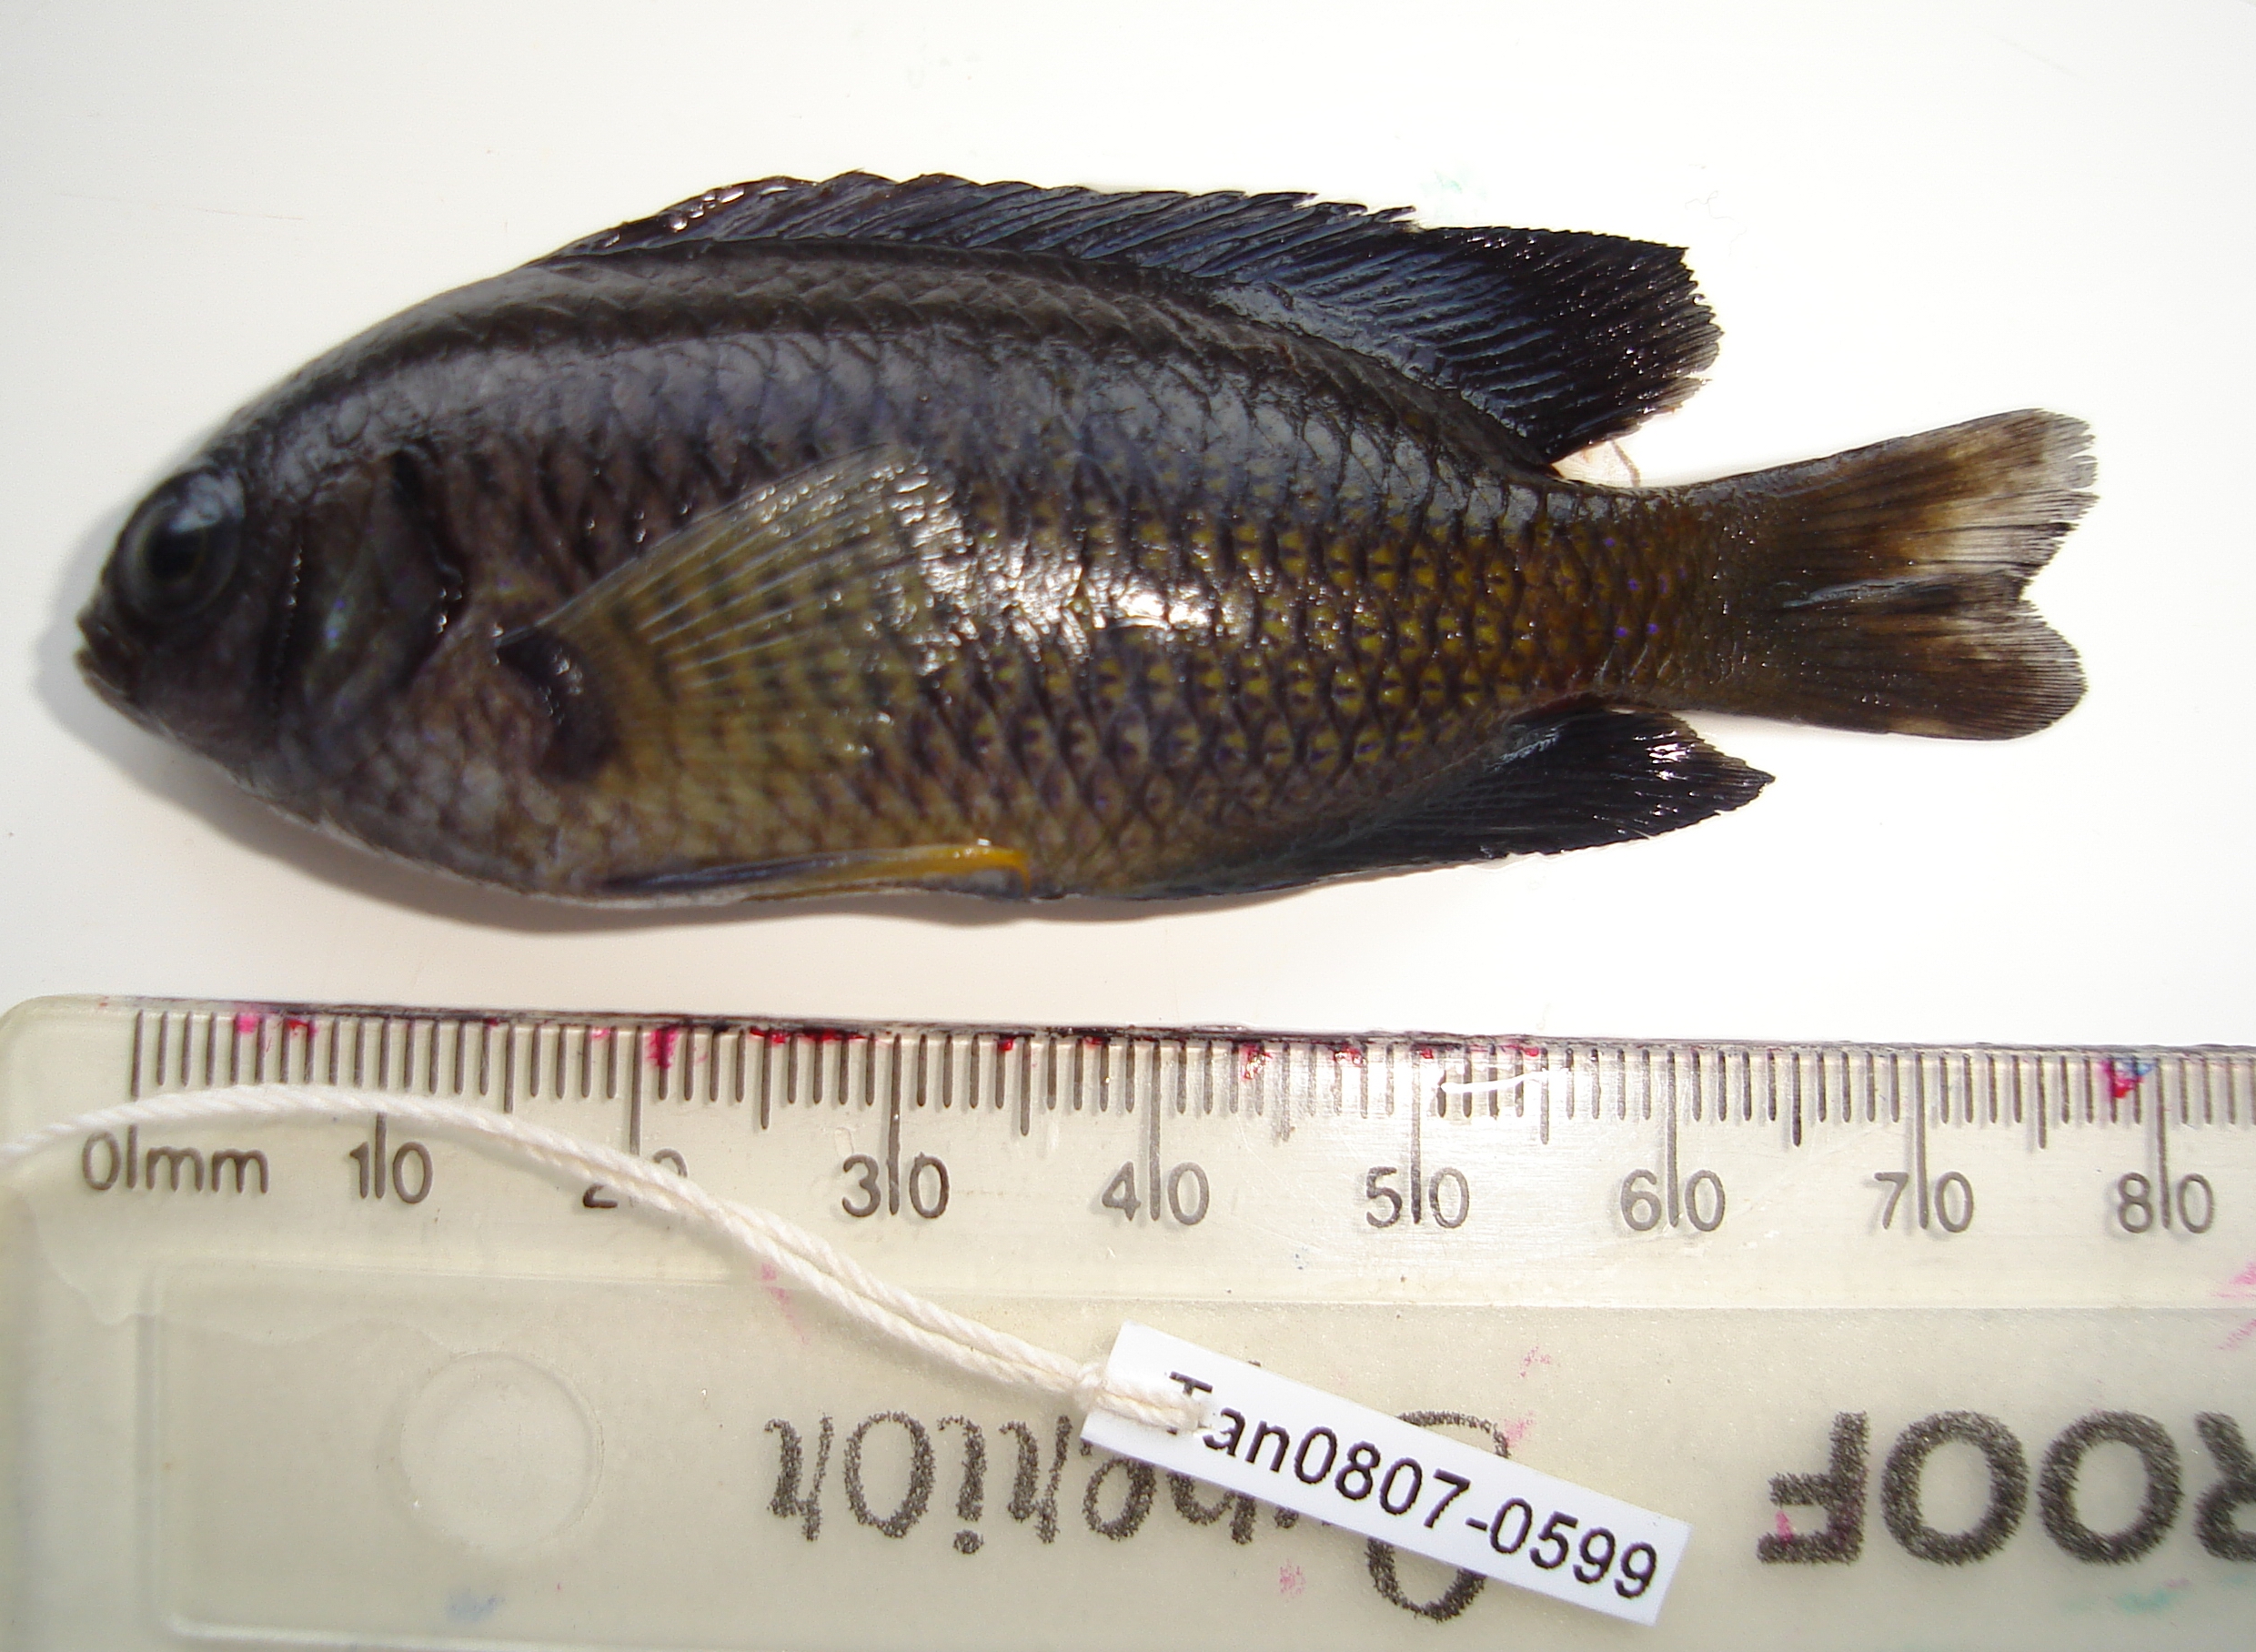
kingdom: Animalia
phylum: Chordata
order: Perciformes
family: Pomacentridae
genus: Pomacentrus
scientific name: Pomacentrus caeruleus
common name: Caerulean damsel
